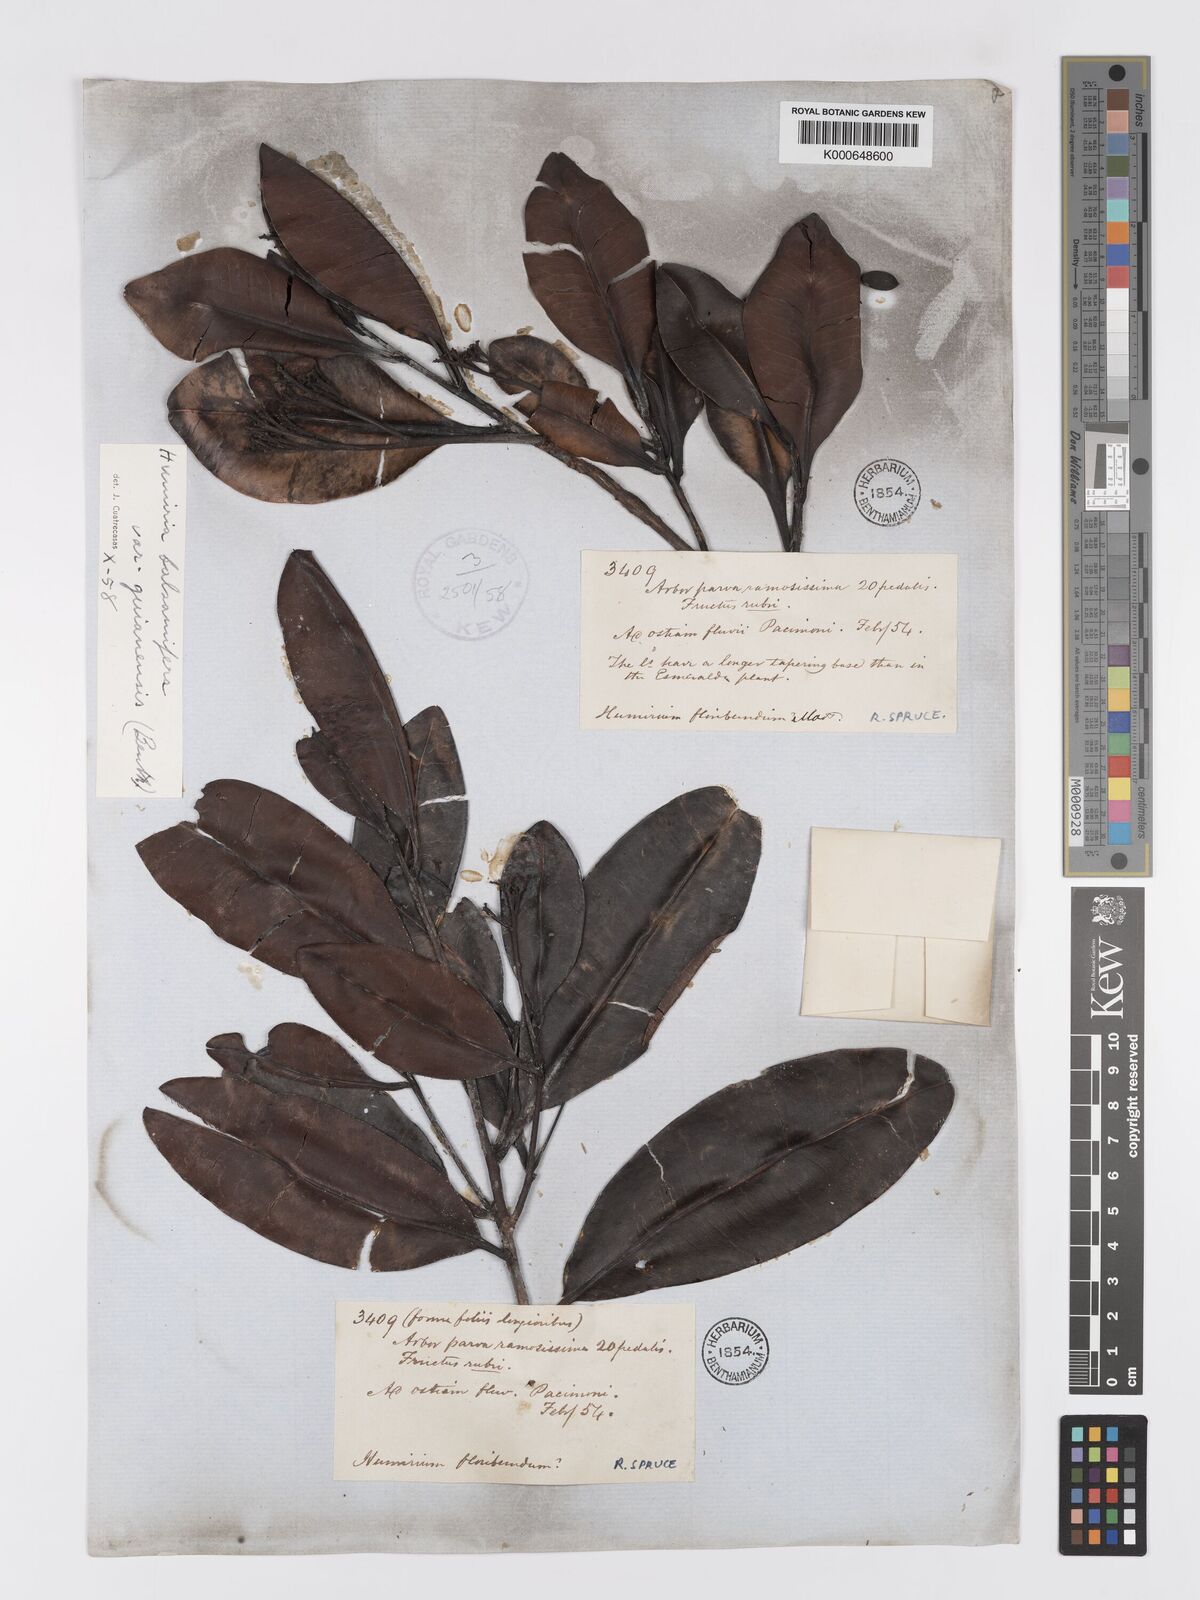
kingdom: Plantae
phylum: Tracheophyta
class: Magnoliopsida
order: Malpighiales
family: Humiriaceae
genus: Humiria
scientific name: Humiria balsamifera
